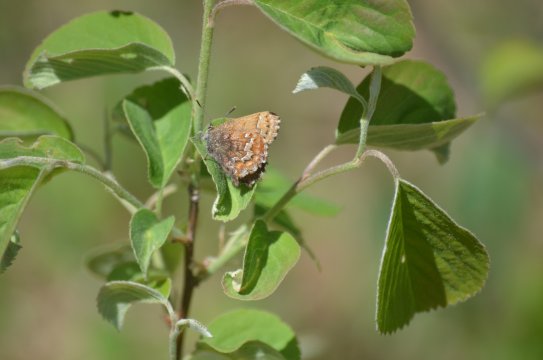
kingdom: Animalia
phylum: Arthropoda
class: Insecta
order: Lepidoptera
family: Lycaenidae
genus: Incisalia
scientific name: Incisalia niphon
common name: Eastern Pine Elfin
